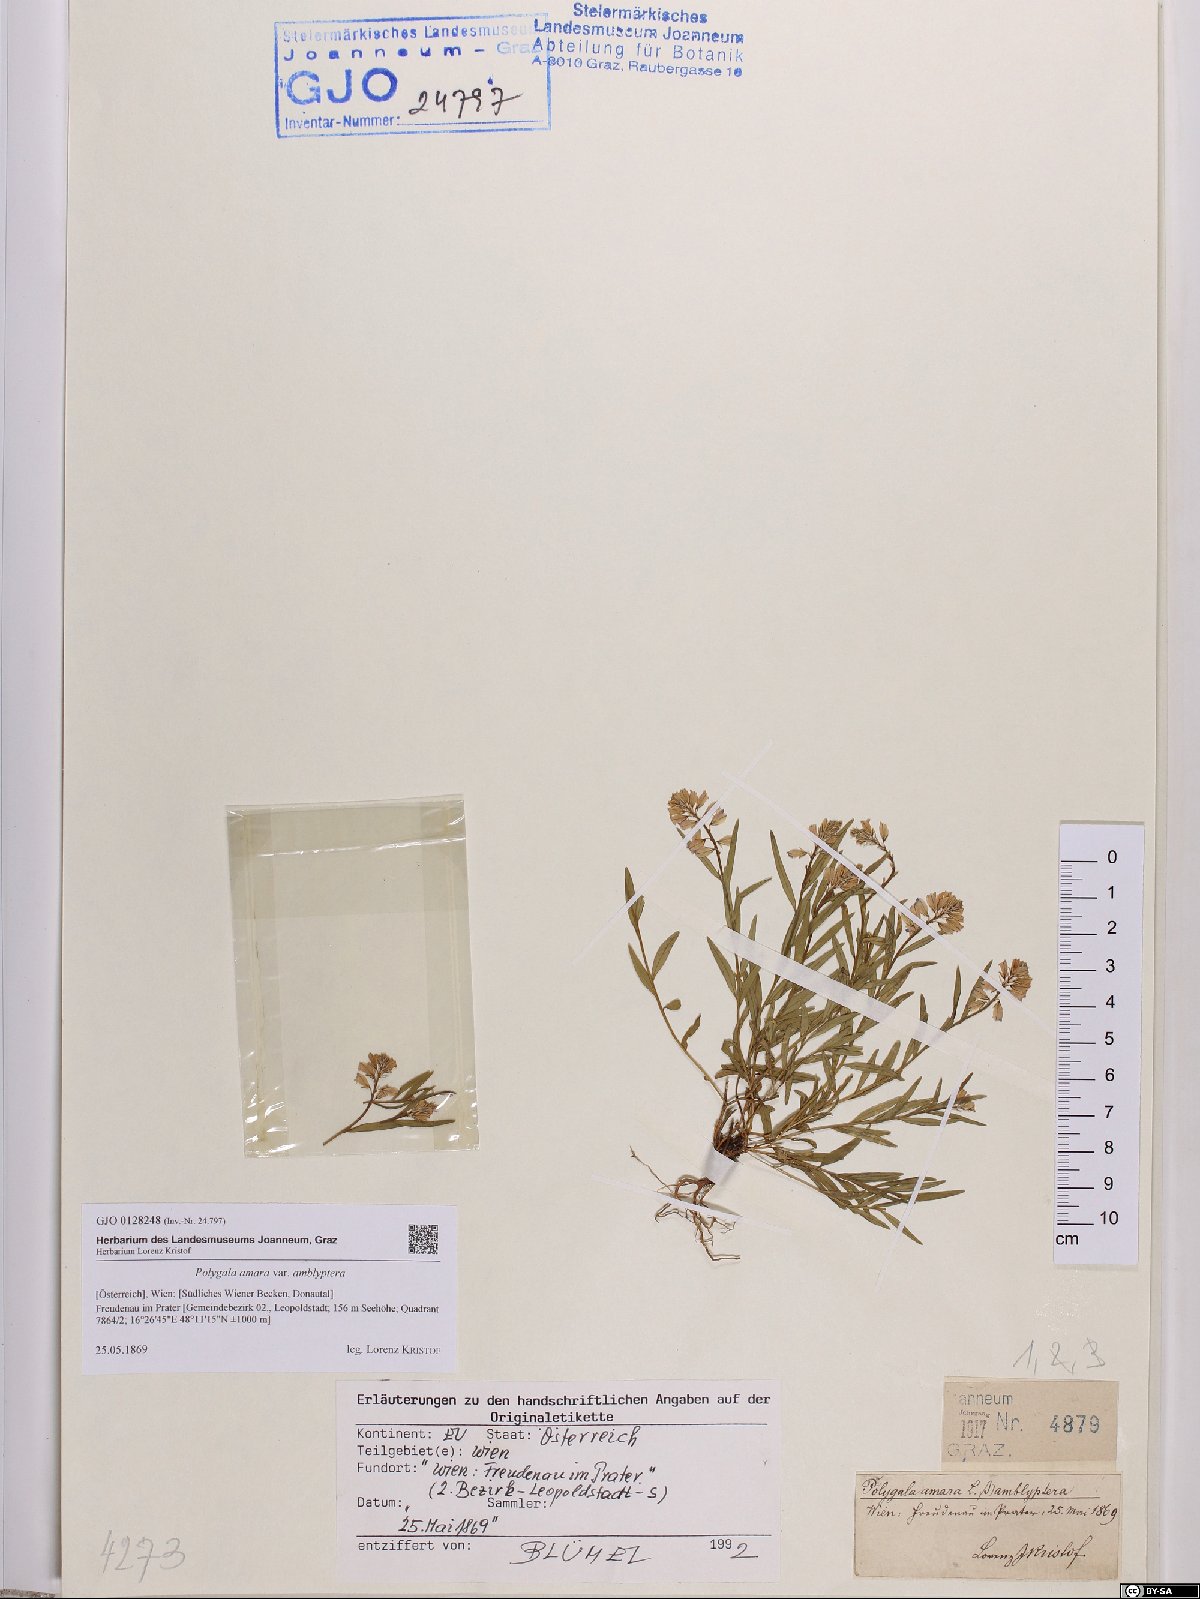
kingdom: Plantae
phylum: Tracheophyta
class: Magnoliopsida
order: Fabales
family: Polygalaceae
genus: Polygala
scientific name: Polygala amara
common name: Milkwort
